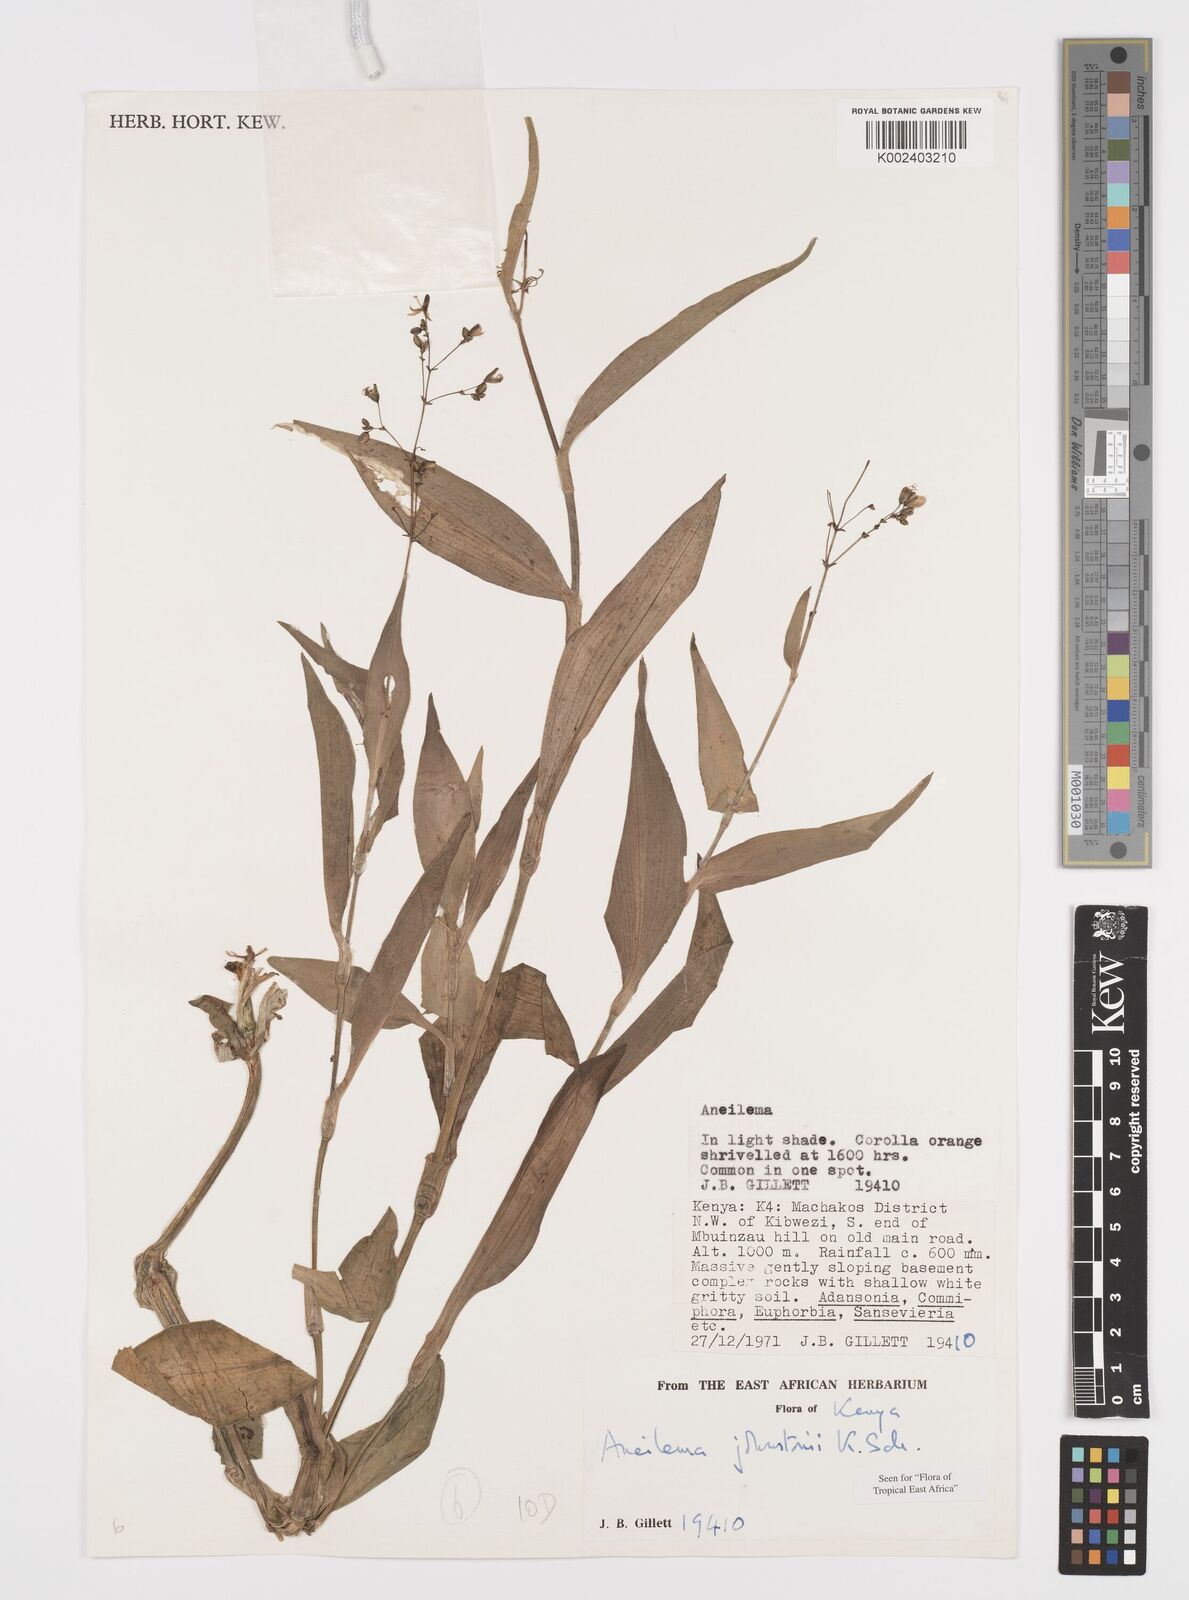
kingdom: Plantae
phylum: Tracheophyta
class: Liliopsida
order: Commelinales
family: Commelinaceae
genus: Aneilema
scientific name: Aneilema johnstonii
